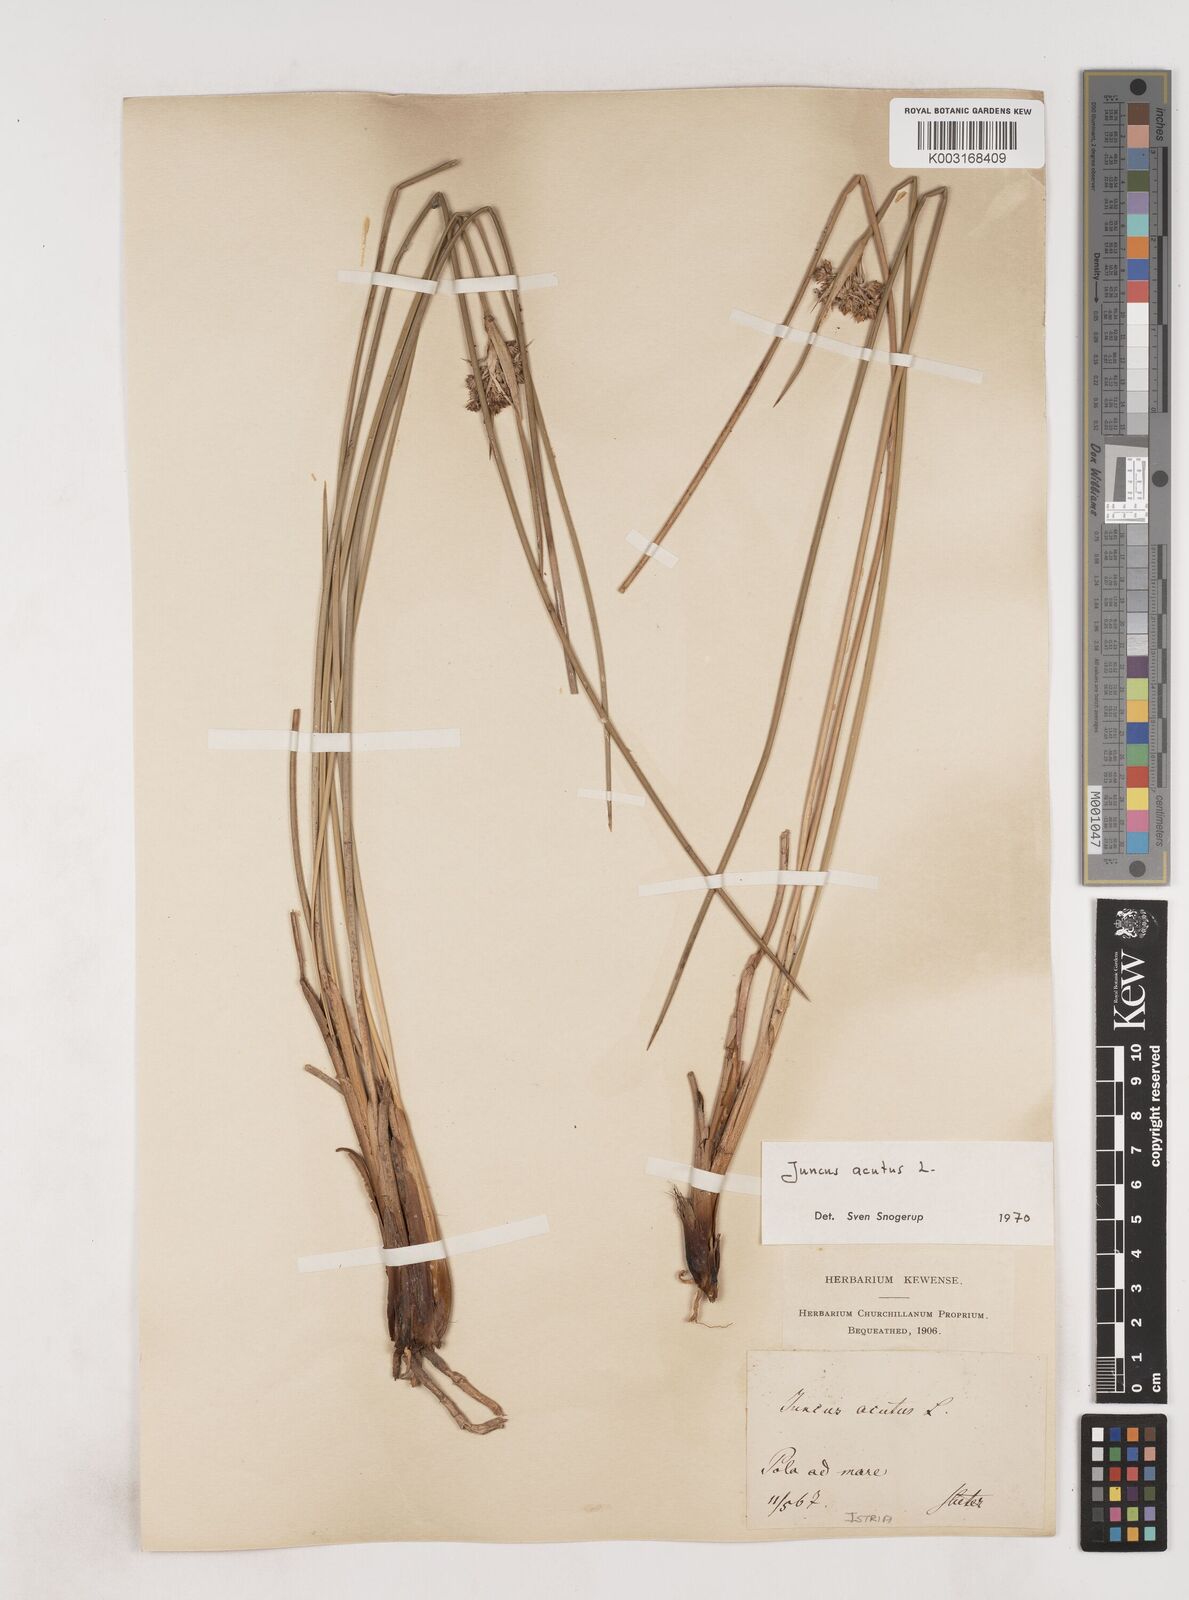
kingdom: Plantae
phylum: Tracheophyta
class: Liliopsida
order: Poales
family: Juncaceae
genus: Juncus
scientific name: Juncus acutus
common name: Sharp rush
